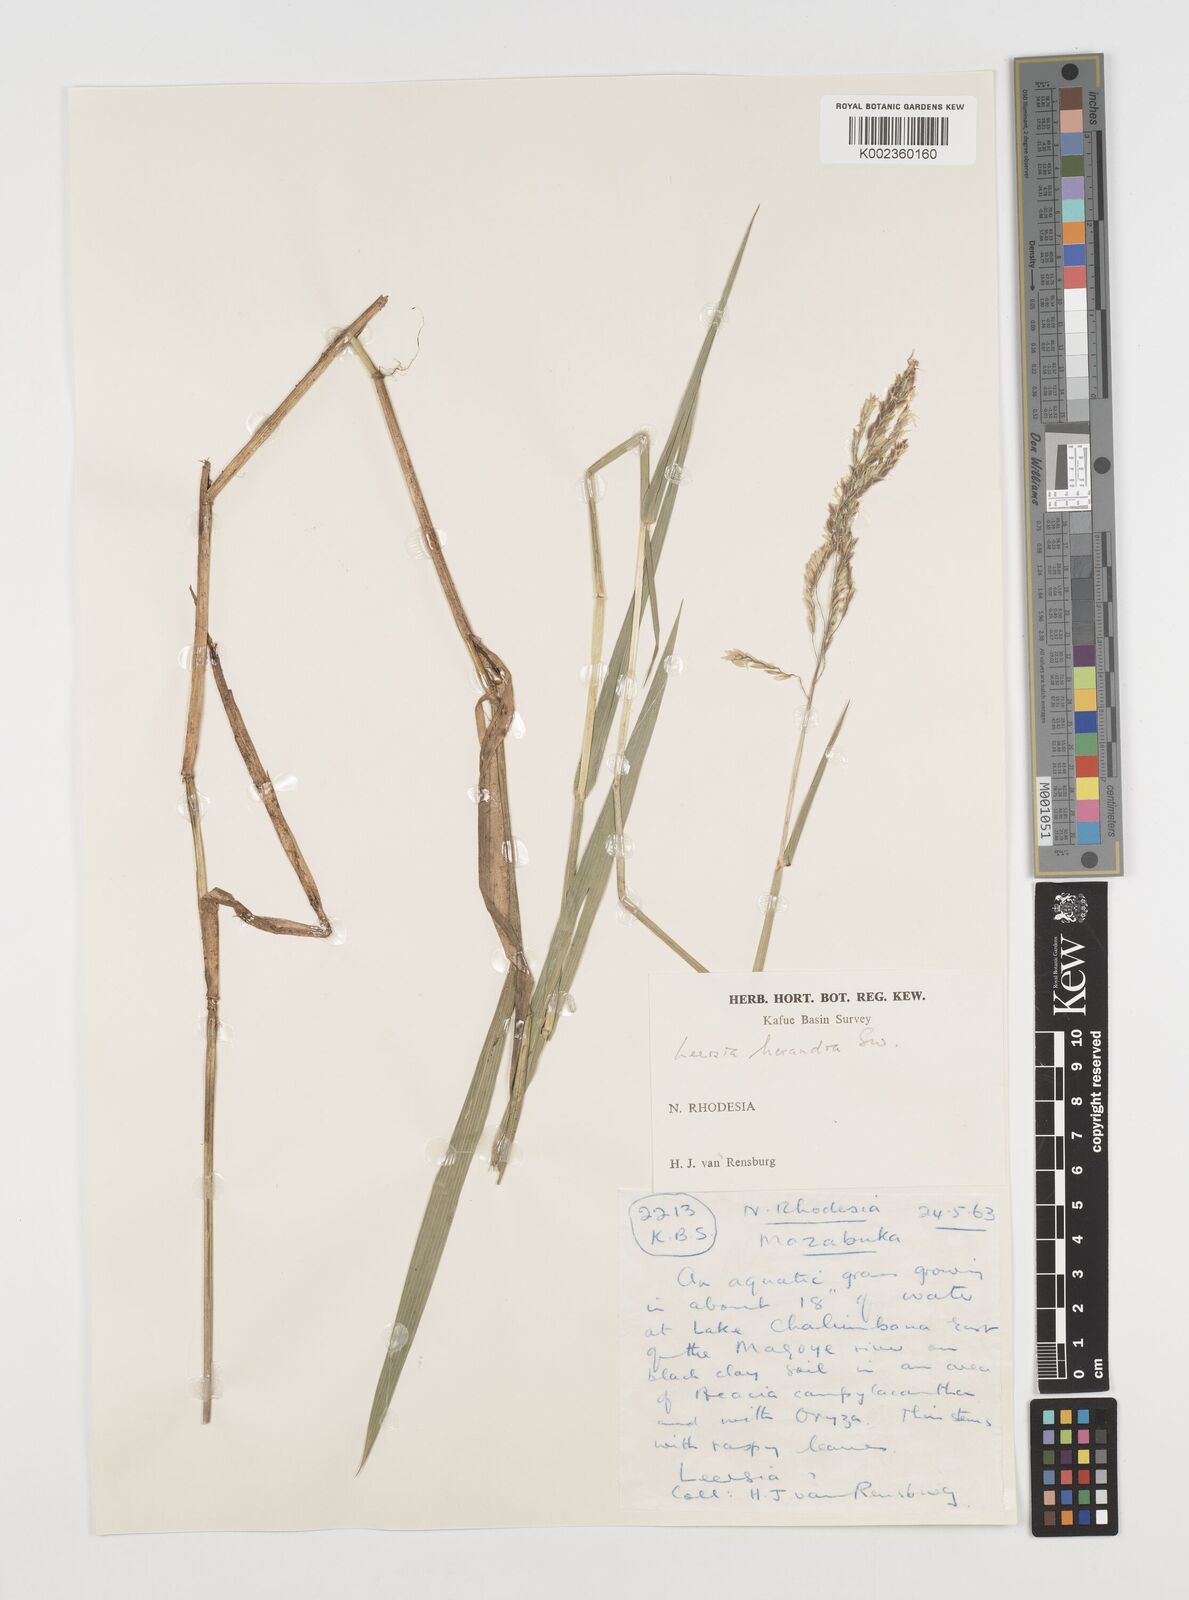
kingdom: Plantae
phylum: Tracheophyta
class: Liliopsida
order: Poales
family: Poaceae
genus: Leersia
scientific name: Leersia hexandra
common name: Southern cut grass
